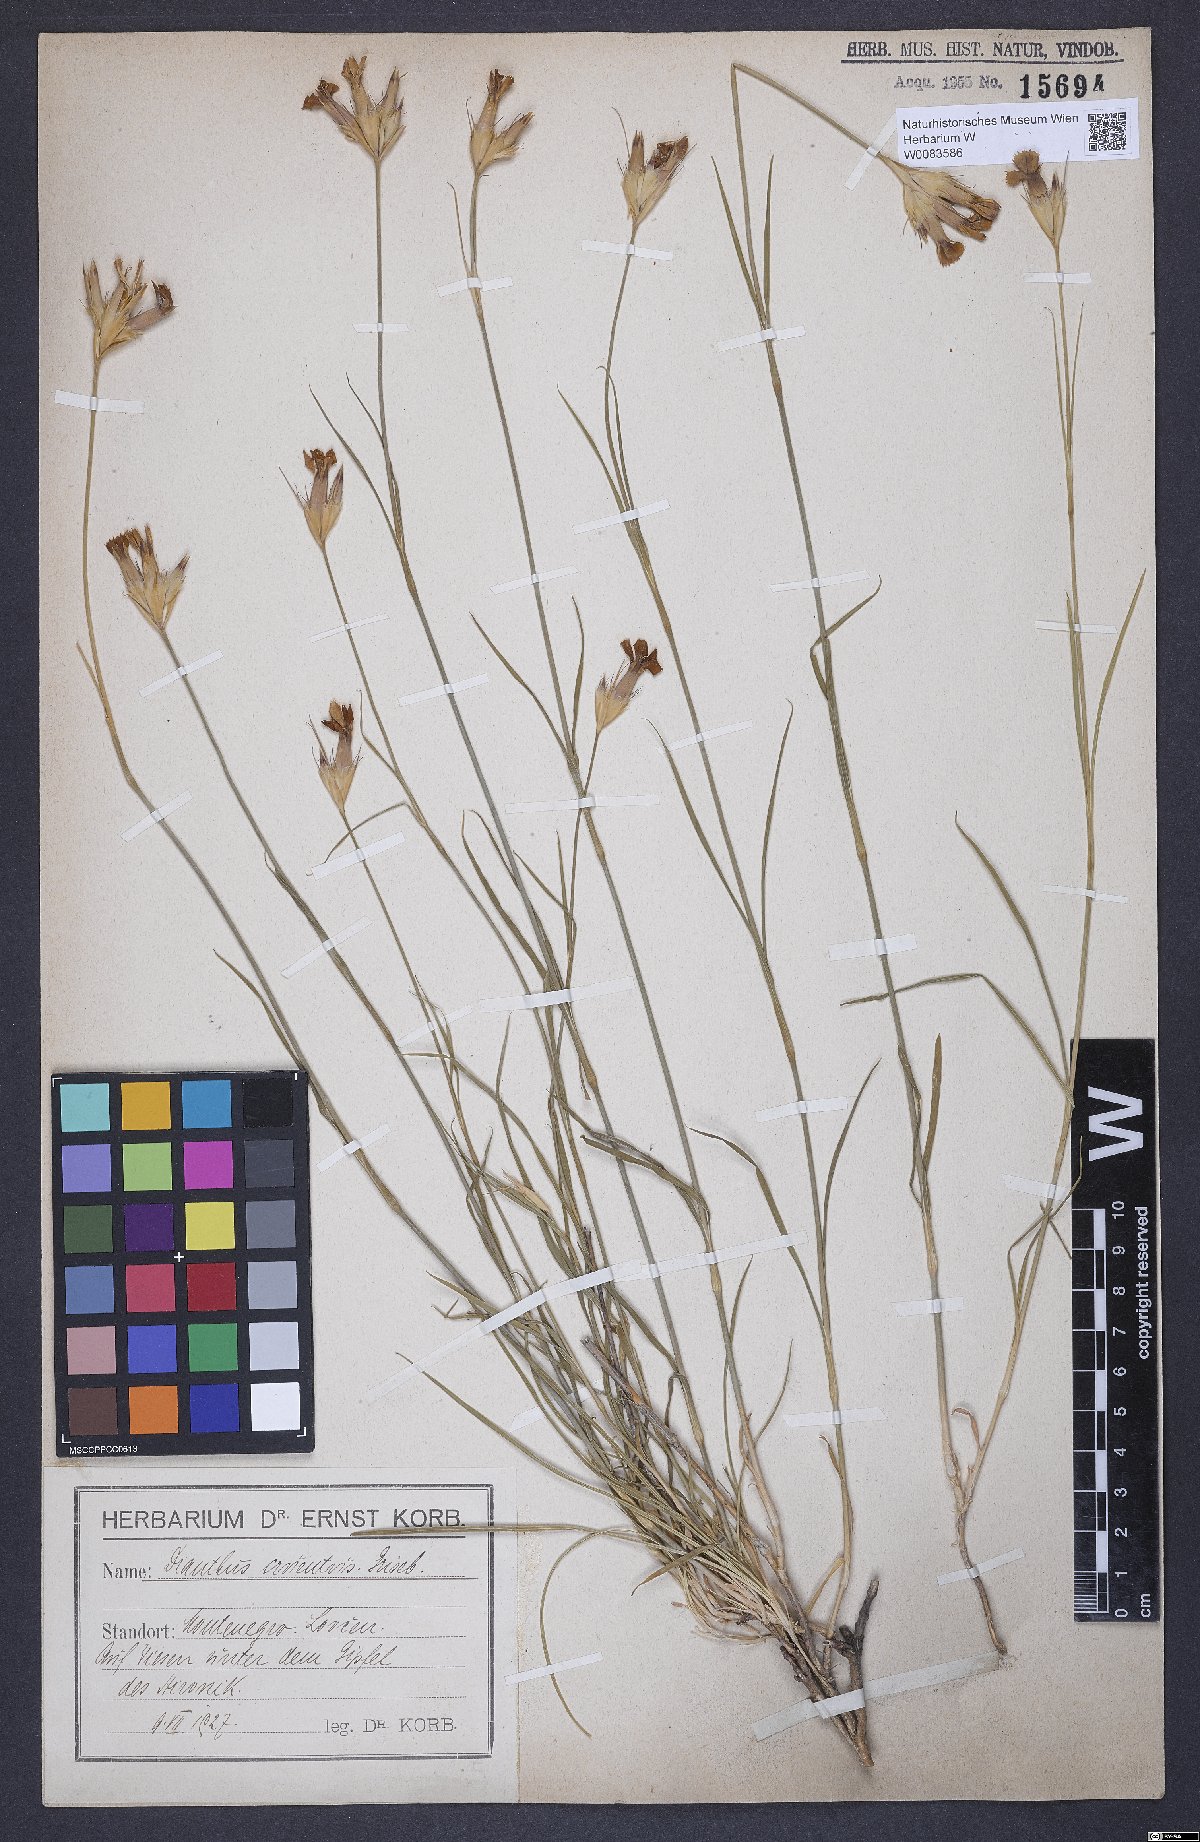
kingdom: Plantae
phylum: Tracheophyta
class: Magnoliopsida
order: Caryophyllales
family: Caryophyllaceae
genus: Dianthus
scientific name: Dianthus cruentus
